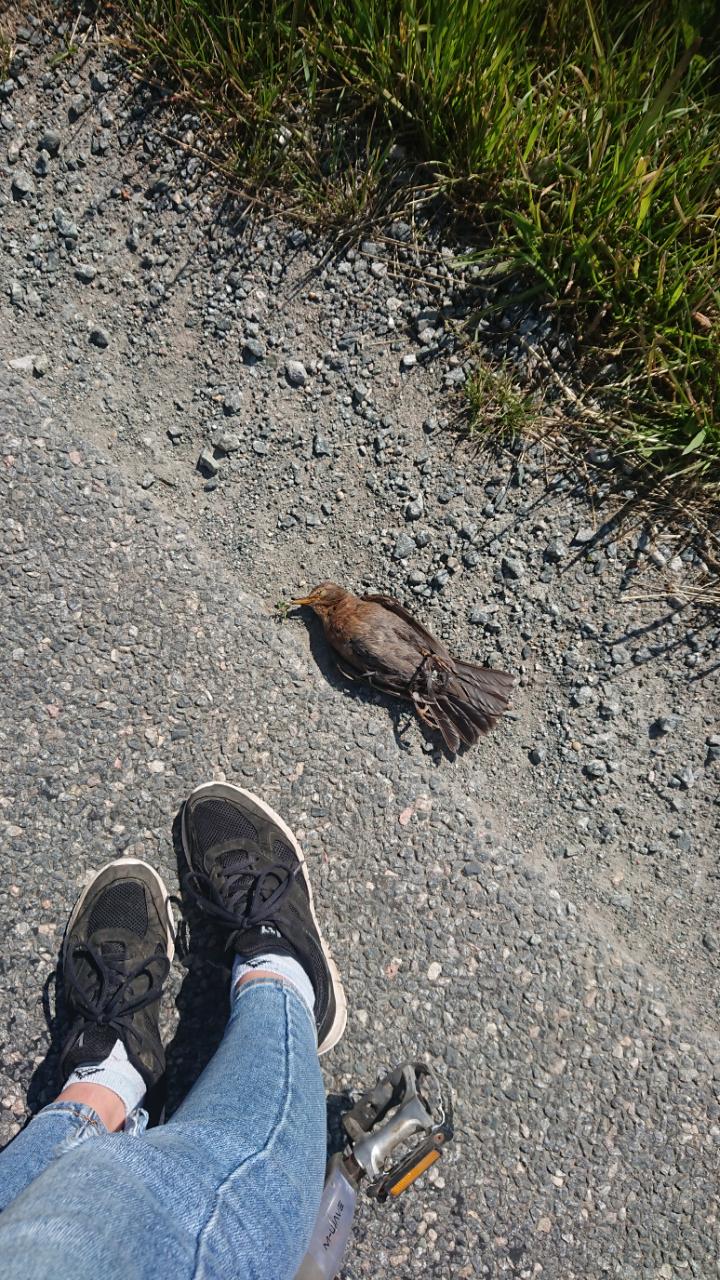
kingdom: Animalia
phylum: Chordata
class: Aves
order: Passeriformes
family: Turdidae
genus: Turdus
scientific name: Turdus merula
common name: Common blackbird
